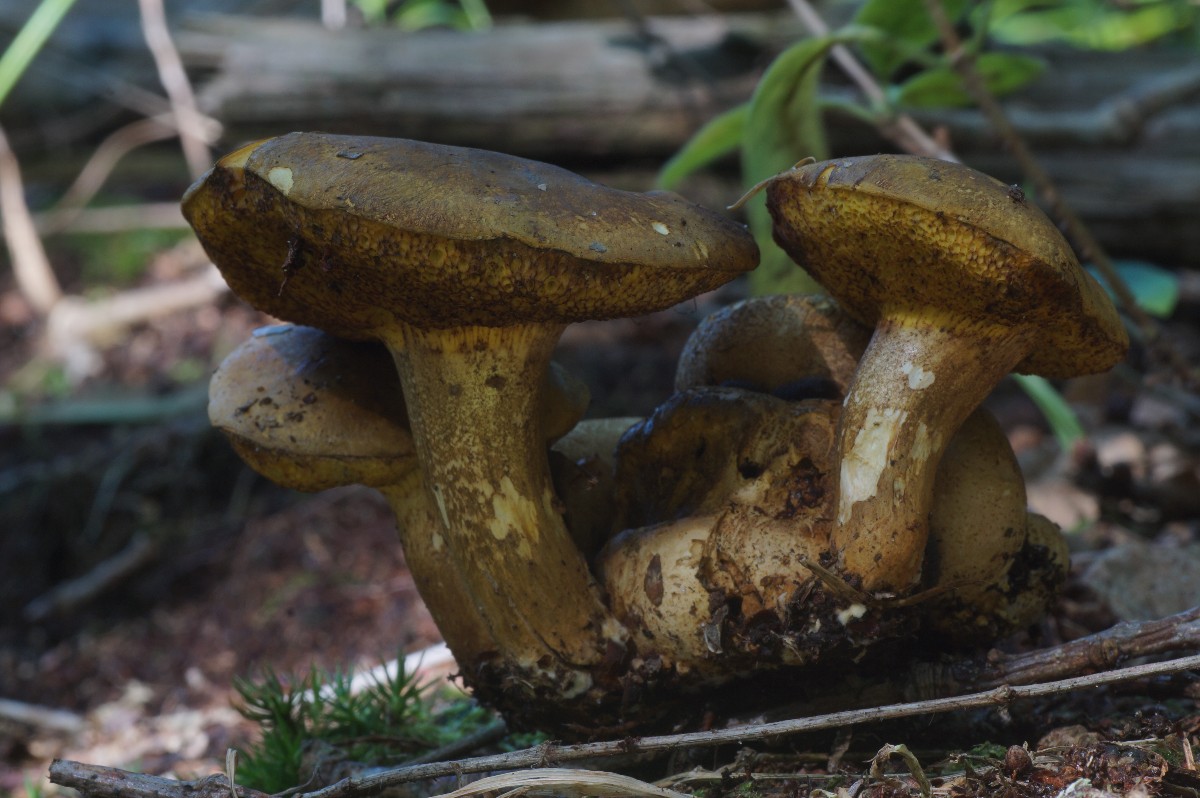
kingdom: Fungi
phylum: Basidiomycota
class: Agaricomycetes
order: Boletales
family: Boletaceae
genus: Pseudoboletus
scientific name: Pseudoboletus parasiticus
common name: snyltende rørhat
